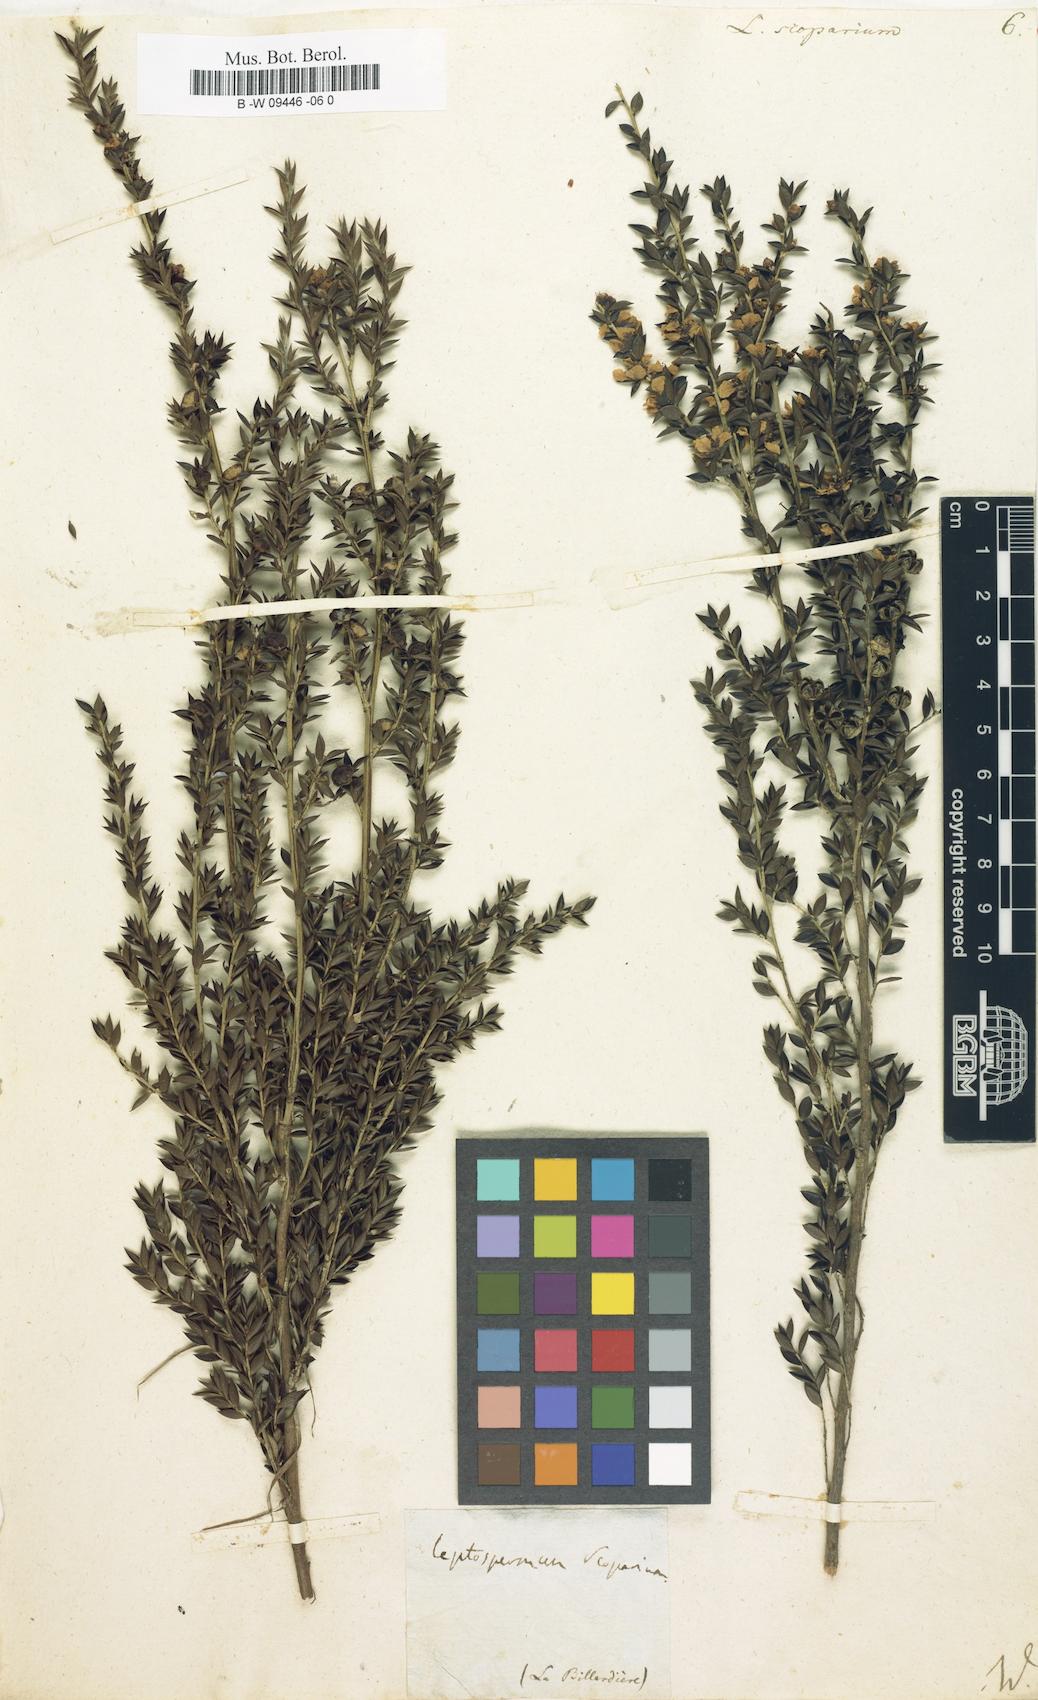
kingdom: Plantae
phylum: Tracheophyta
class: Magnoliopsida
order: Myrtales
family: Myrtaceae
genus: Leptospermum
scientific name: Leptospermum scoparium
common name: Broom tea-tree
